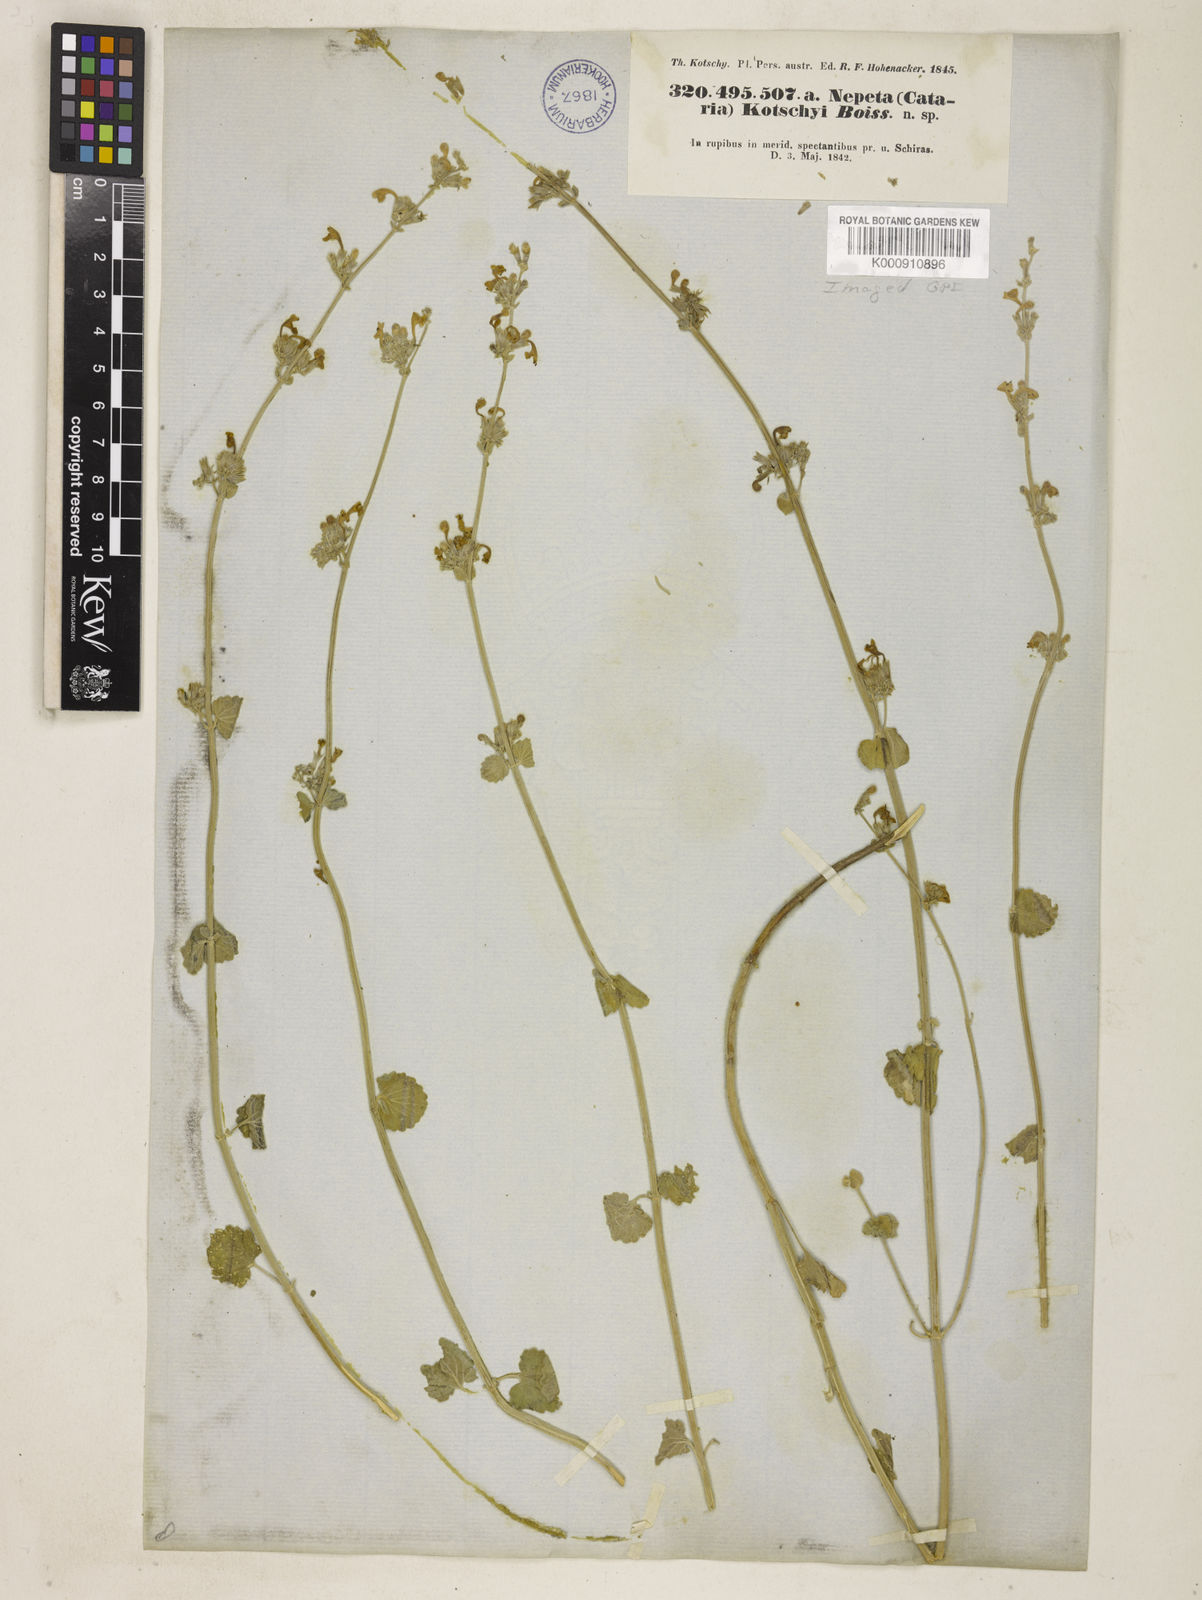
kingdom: Plantae
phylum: Tracheophyta
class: Magnoliopsida
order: Lamiales
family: Lamiaceae
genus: Nepeta
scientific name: Nepeta kotschyi
